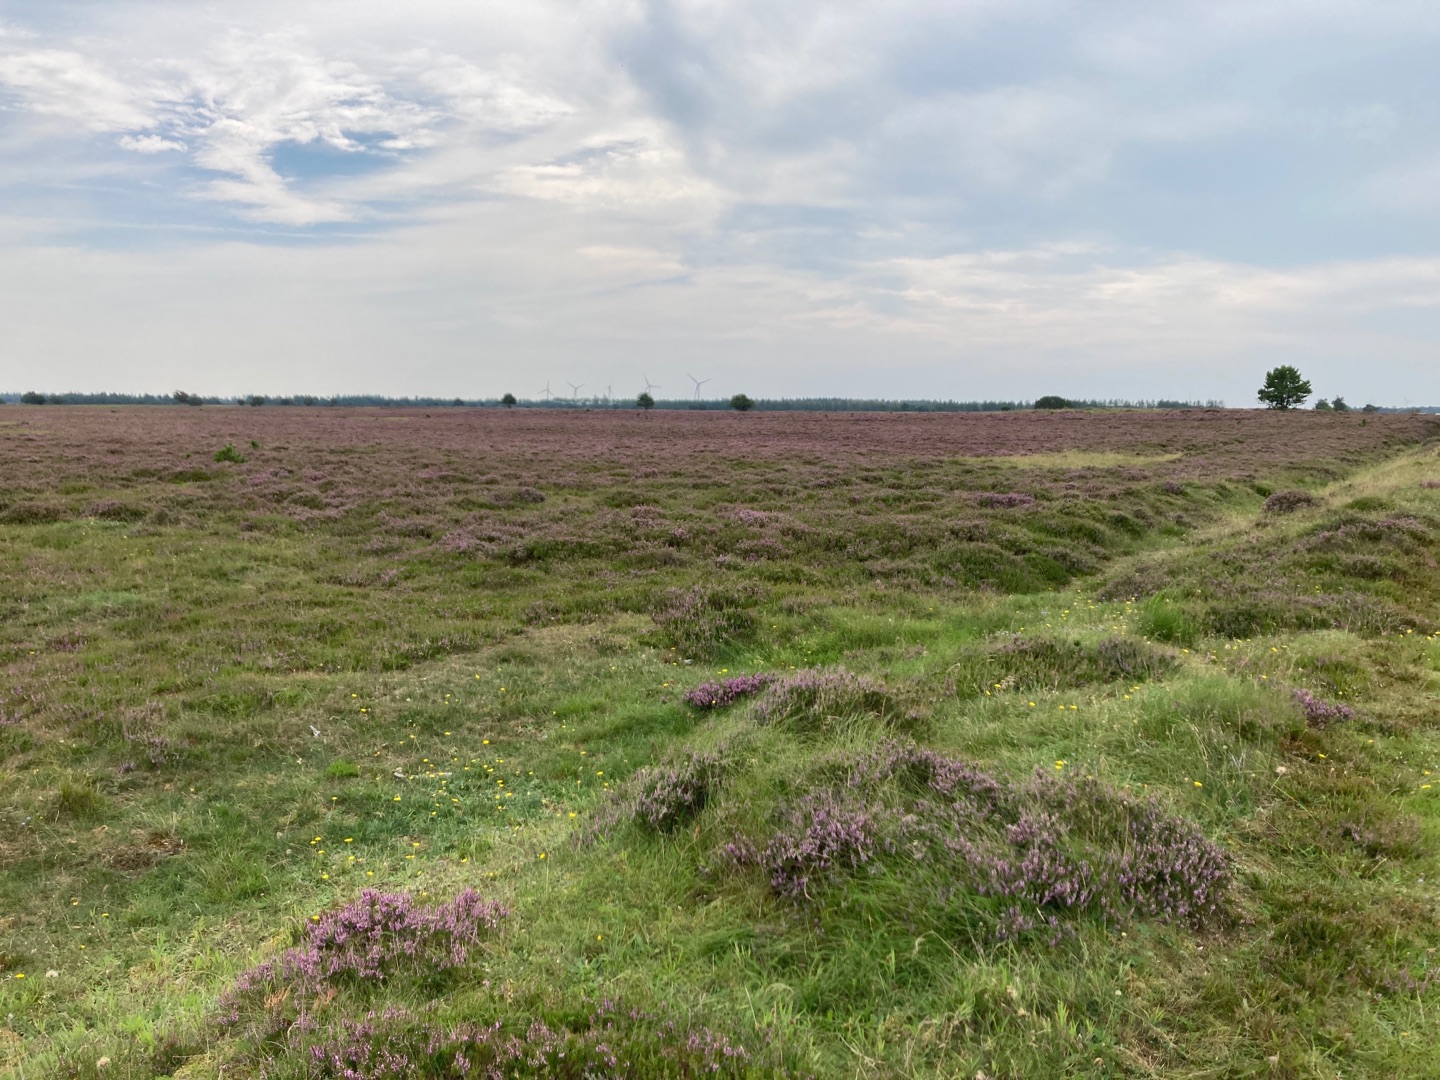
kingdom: Plantae
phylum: Tracheophyta
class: Magnoliopsida
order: Ericales
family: Ericaceae
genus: Calluna
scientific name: Calluna vulgaris
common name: Hedelyng
